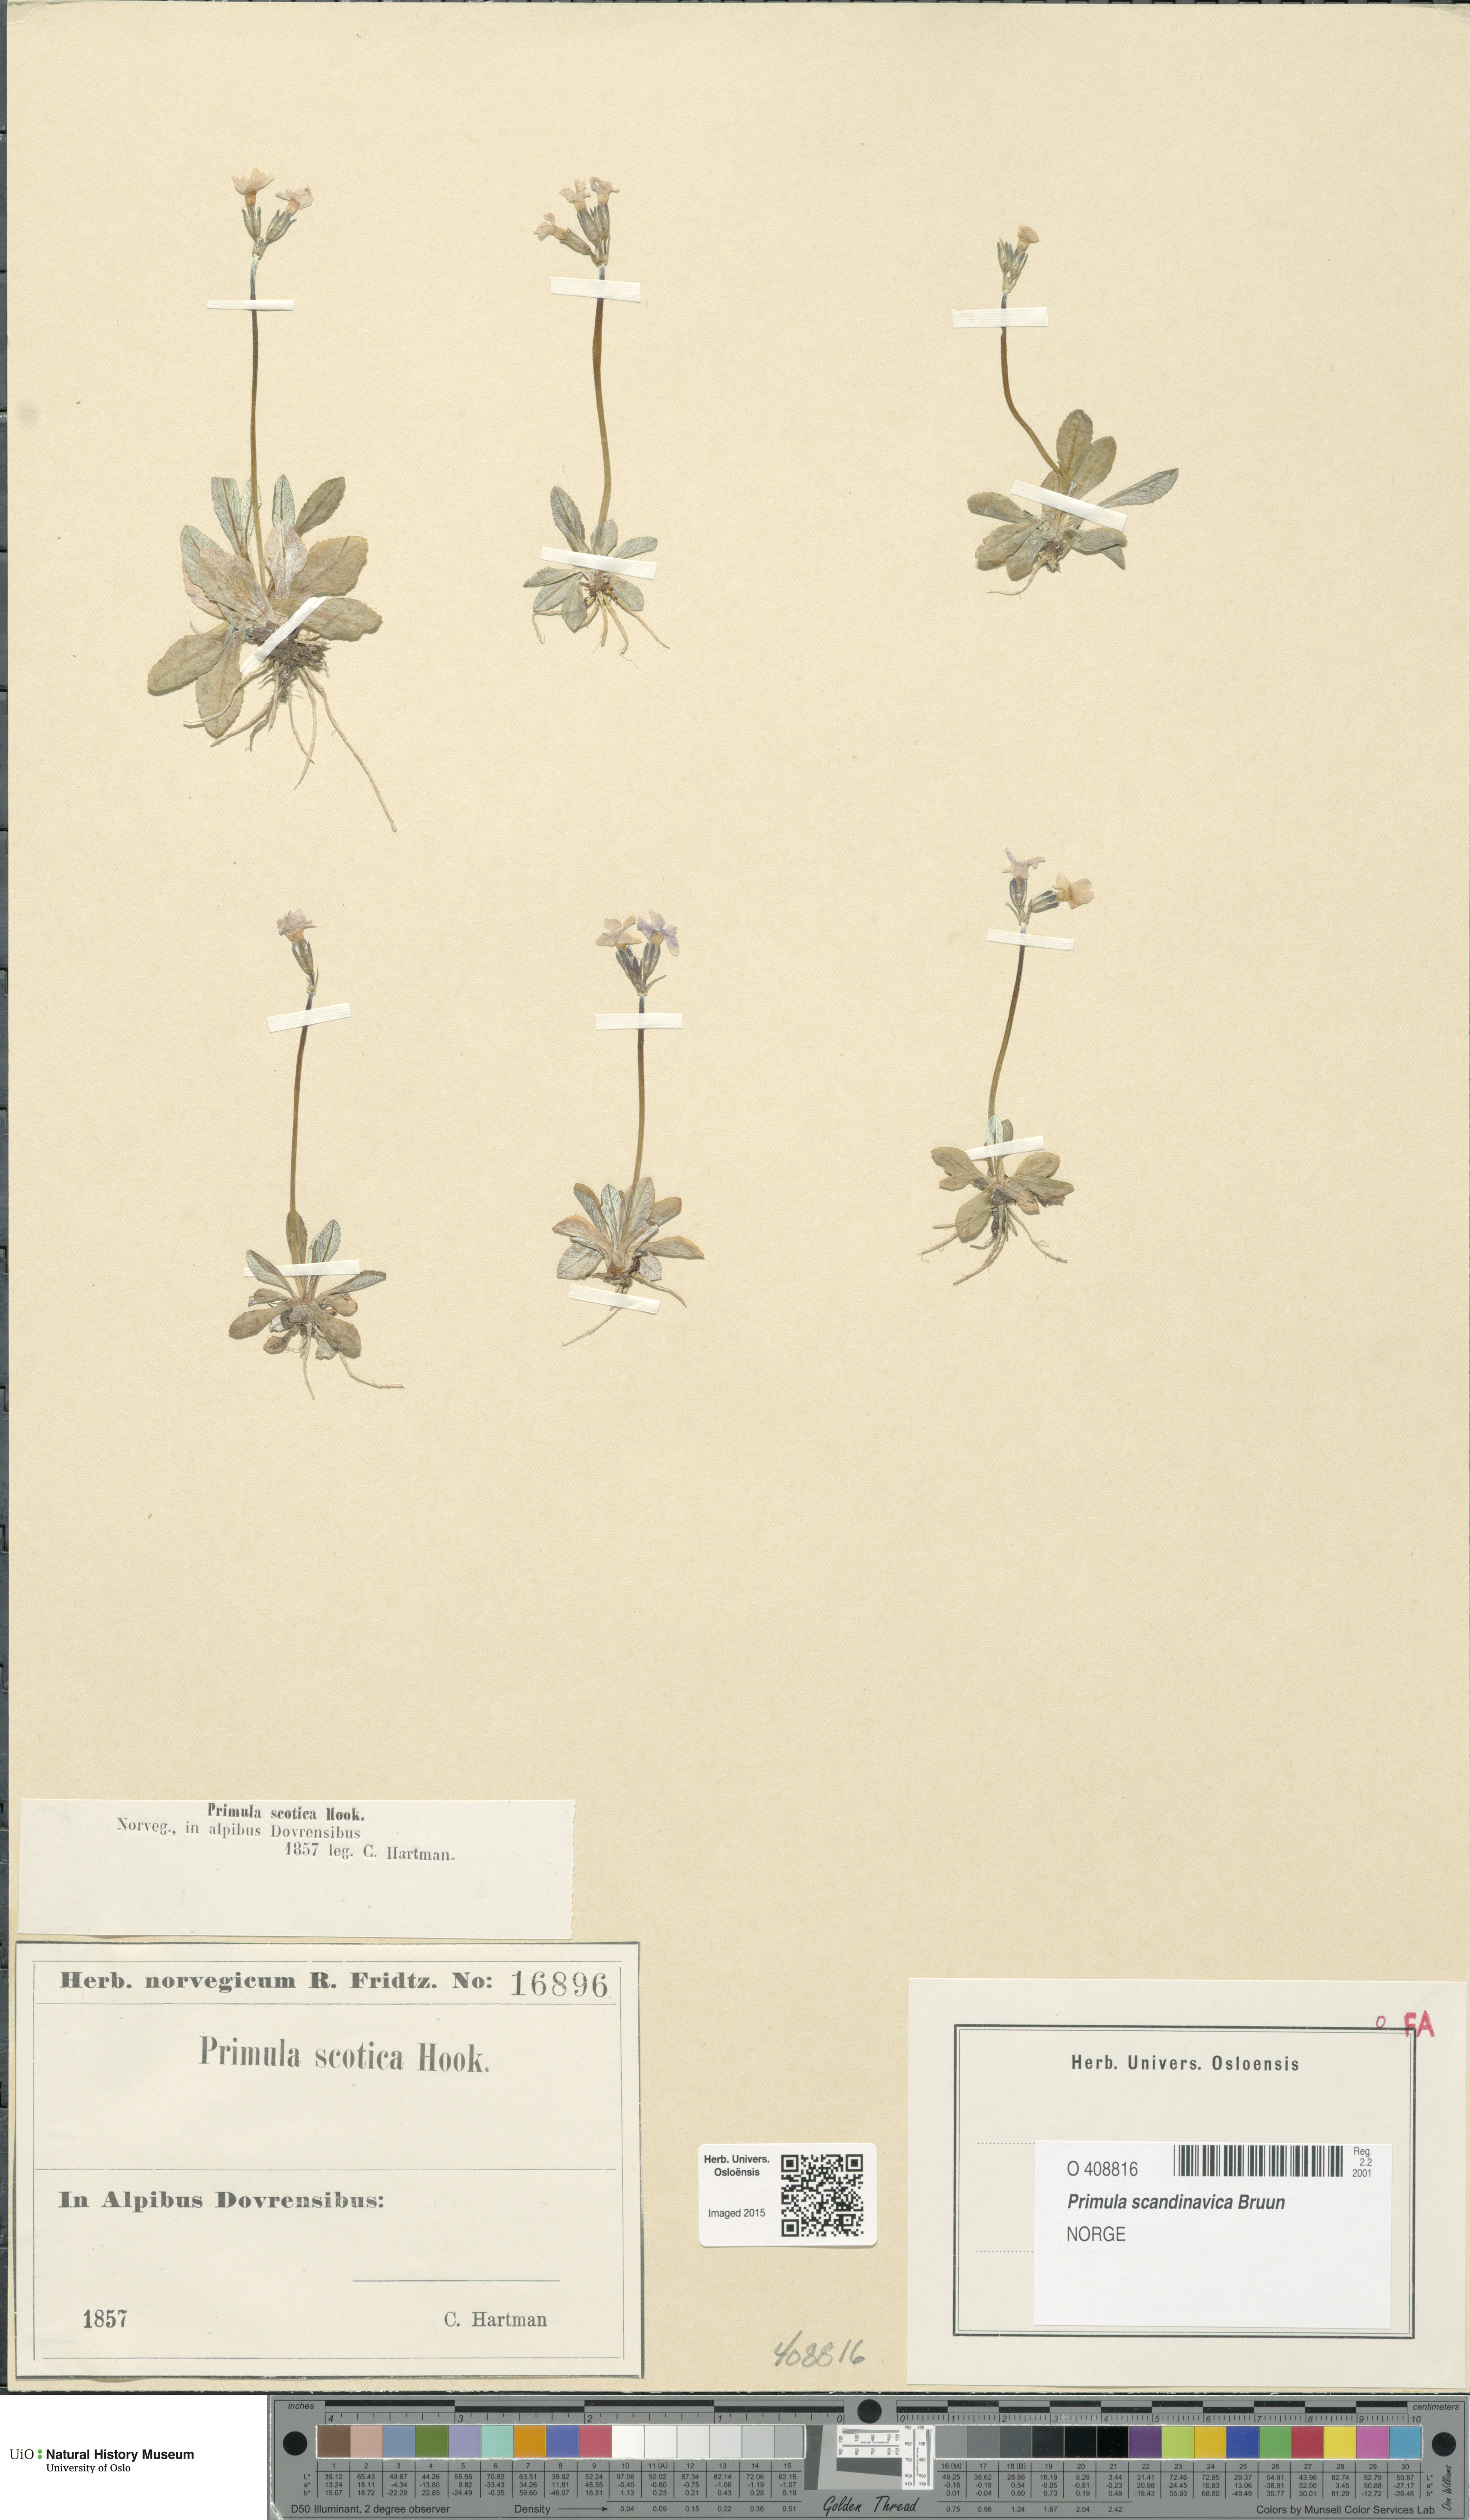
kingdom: Plantae
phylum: Tracheophyta
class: Magnoliopsida
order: Ericales
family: Primulaceae
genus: Primula
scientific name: Primula scandinavica
